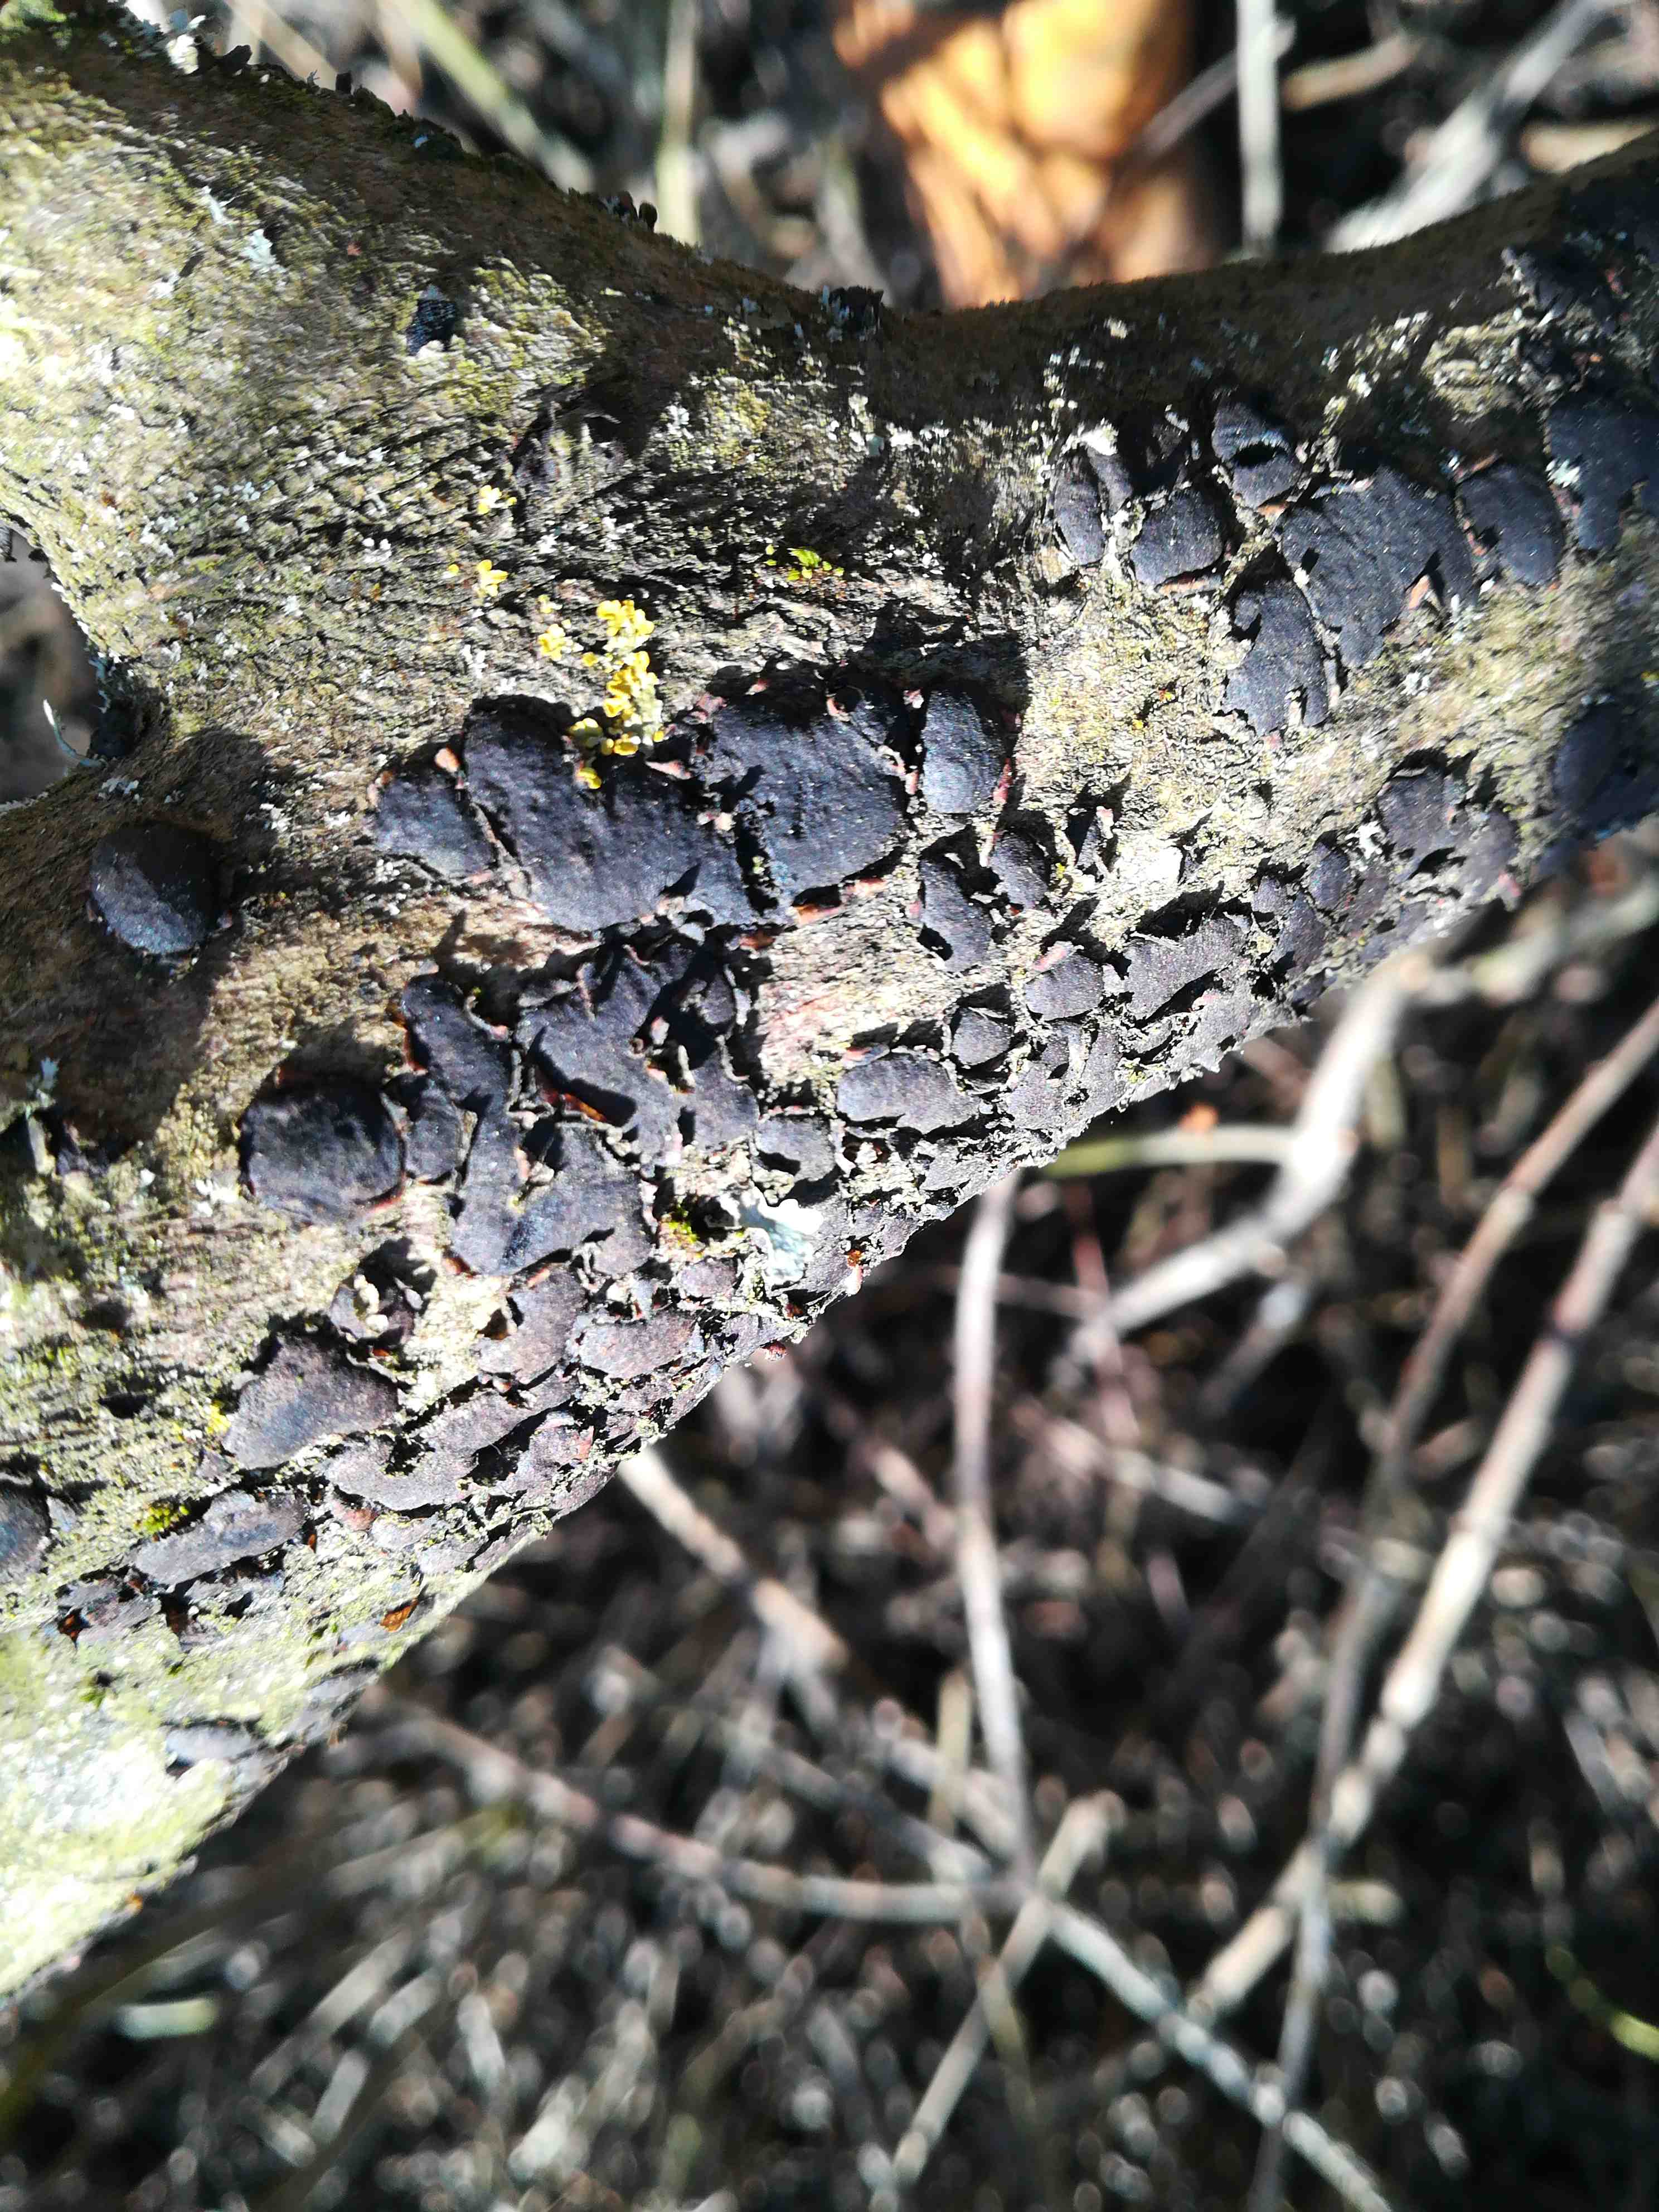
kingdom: Fungi
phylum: Ascomycota
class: Sordariomycetes
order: Xylariales
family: Diatrypaceae
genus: Diatrype
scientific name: Diatrype bullata
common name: pile-kulskorpe
